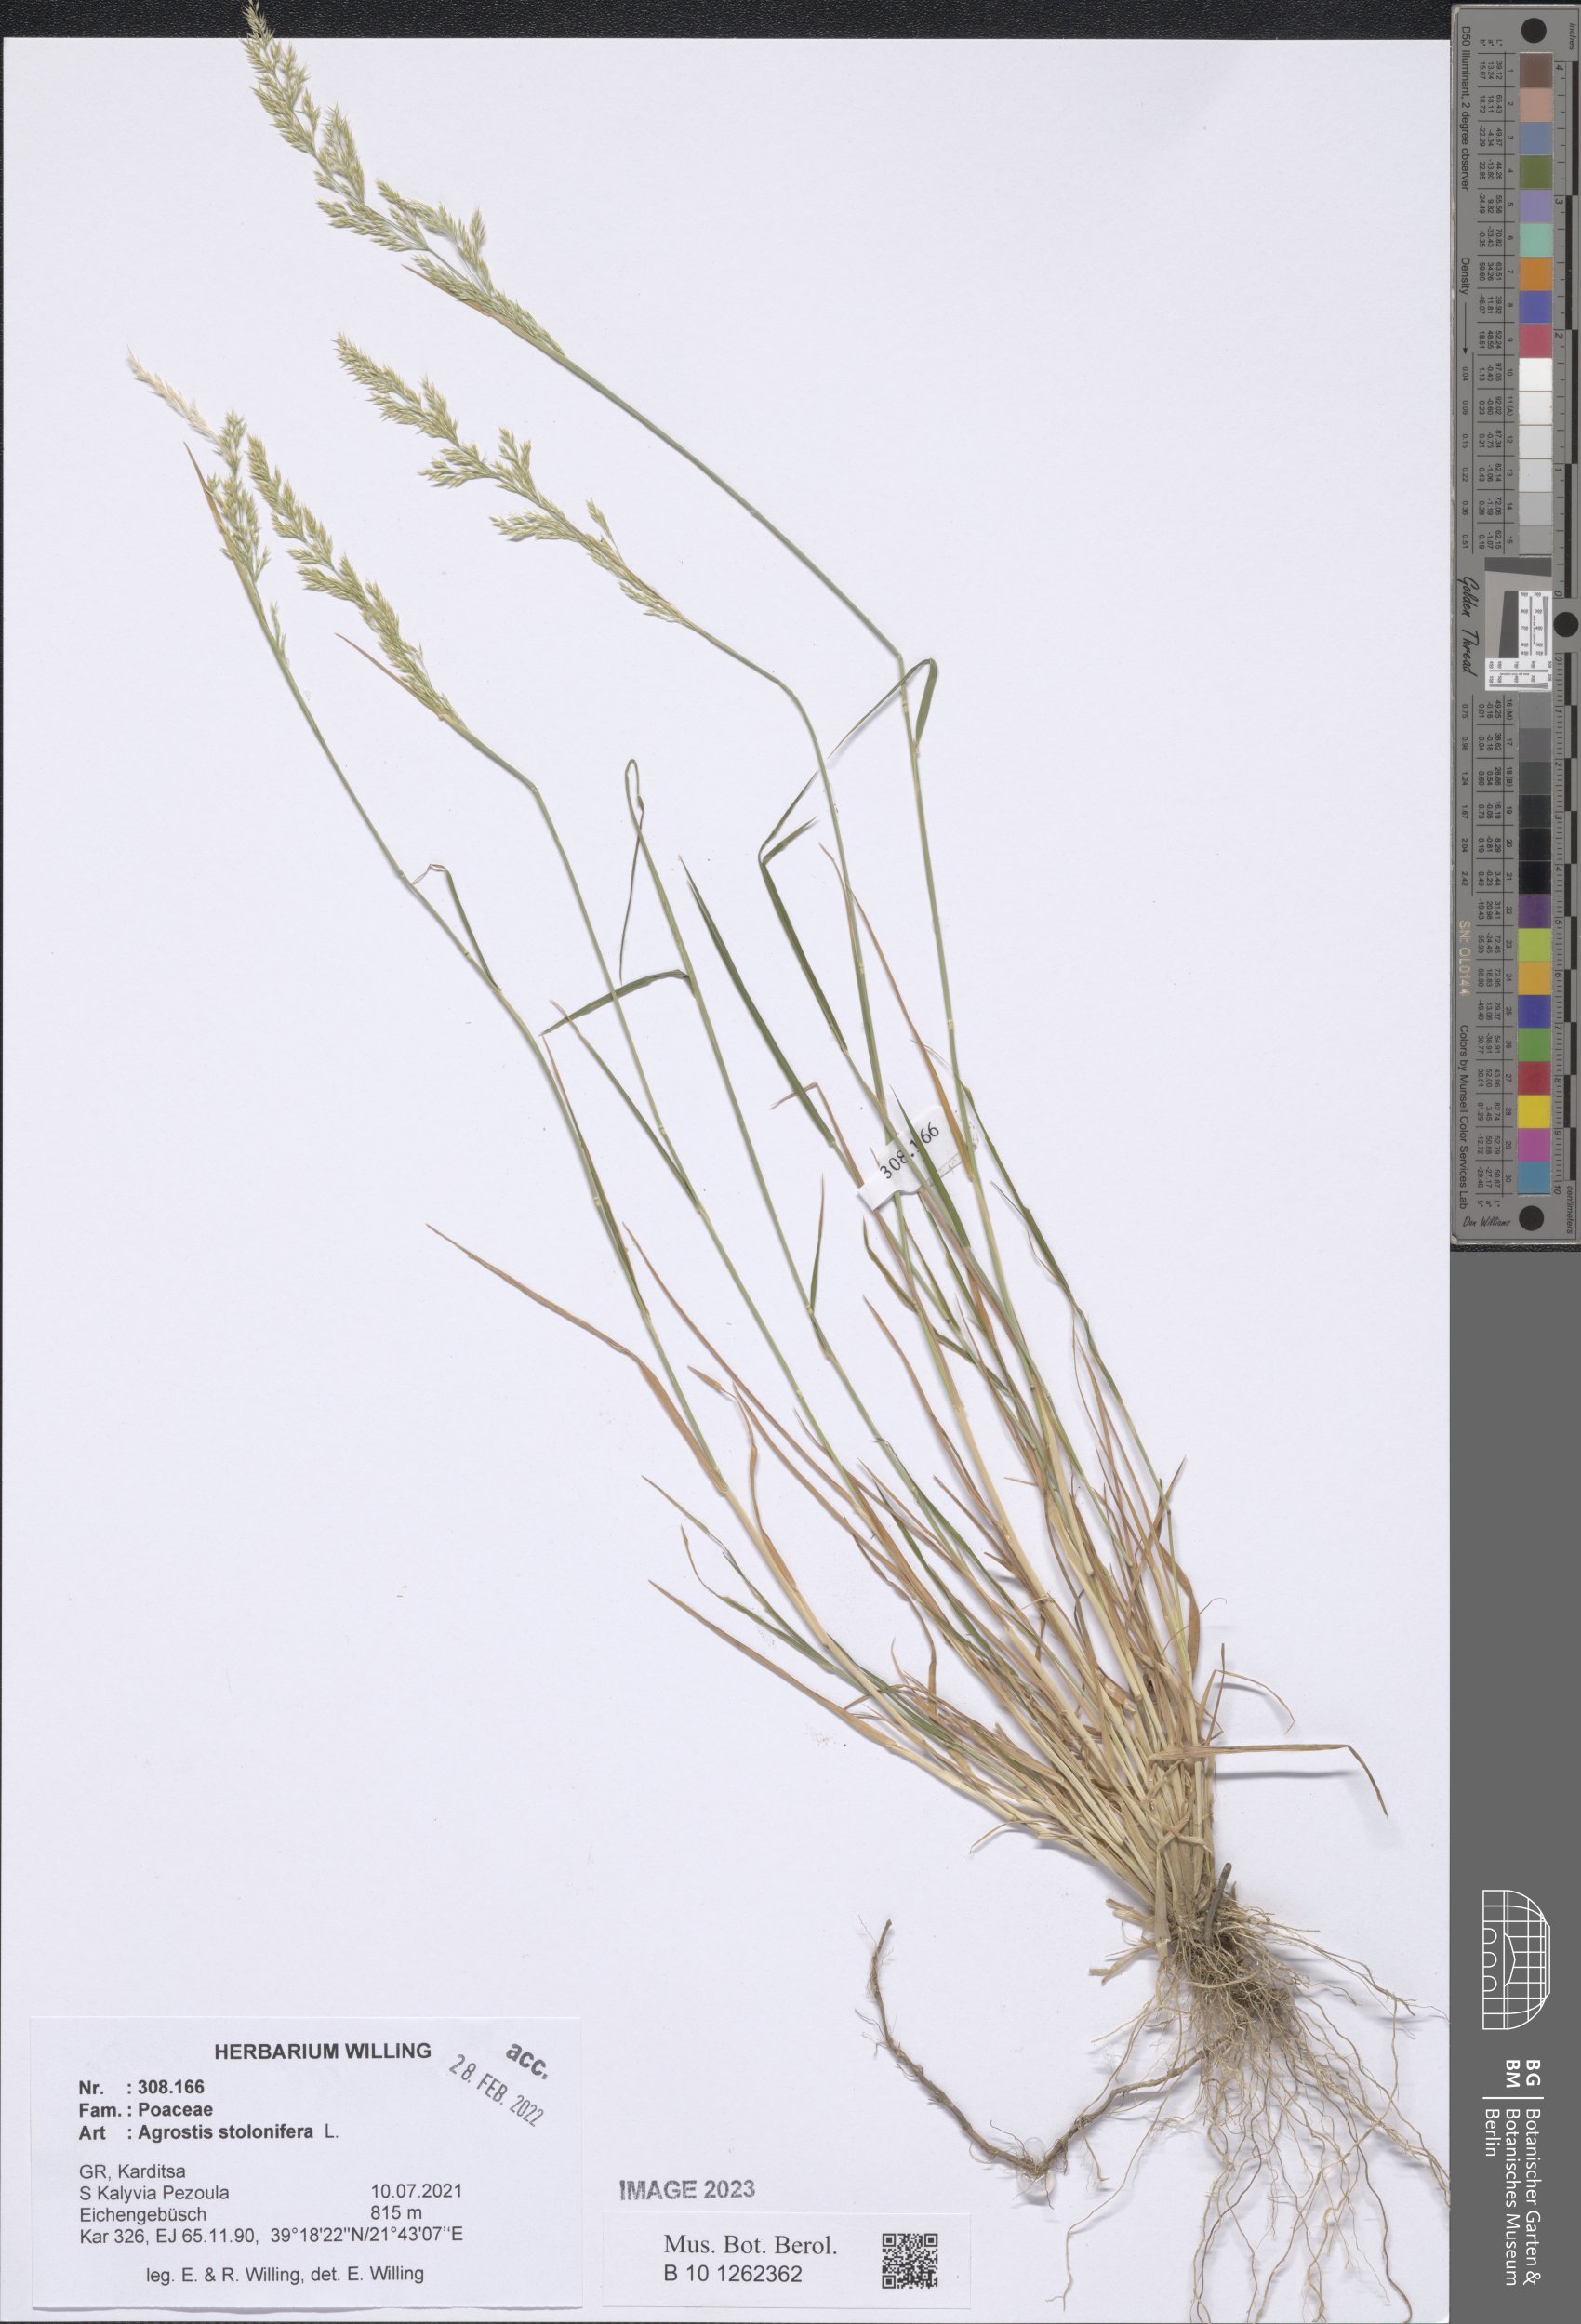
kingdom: Plantae
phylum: Tracheophyta
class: Liliopsida
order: Poales
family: Poaceae
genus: Agrostis
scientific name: Agrostis stolonifera
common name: Creeping bentgrass
